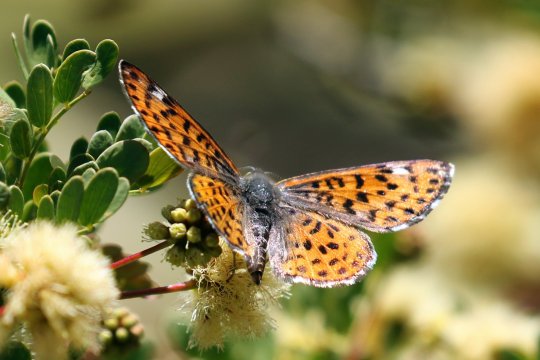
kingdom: Animalia
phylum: Arthropoda
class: Insecta
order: Lepidoptera
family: Riodinidae
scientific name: Riodinidae
